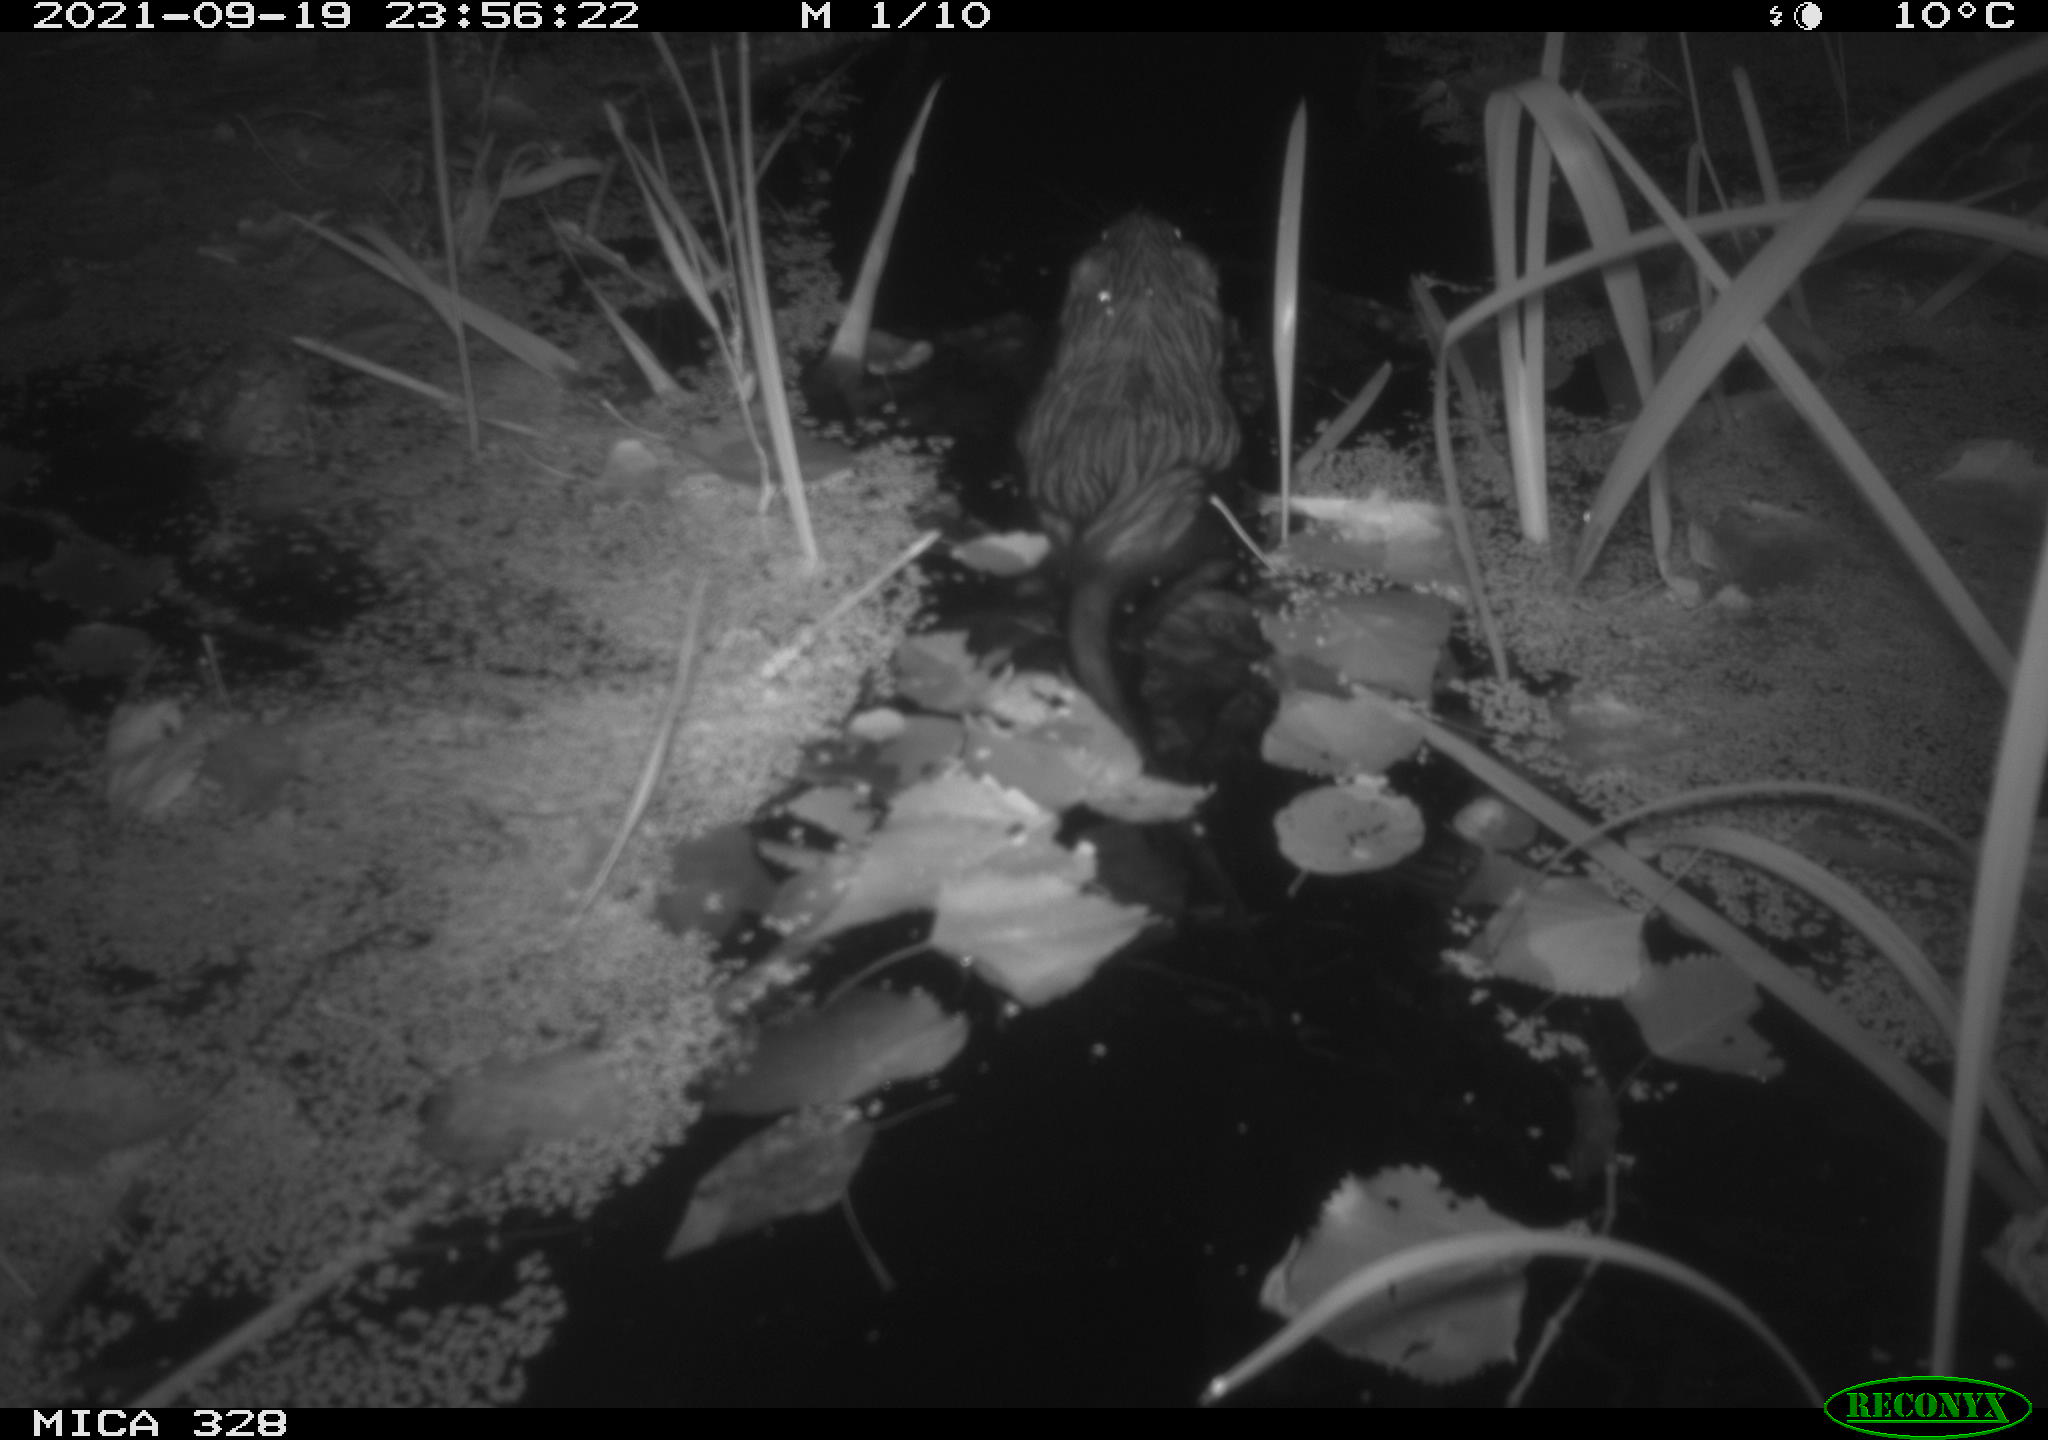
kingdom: Animalia
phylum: Chordata
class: Mammalia
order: Rodentia
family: Cricetidae
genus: Ondatra
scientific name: Ondatra zibethicus
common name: Muskrat
